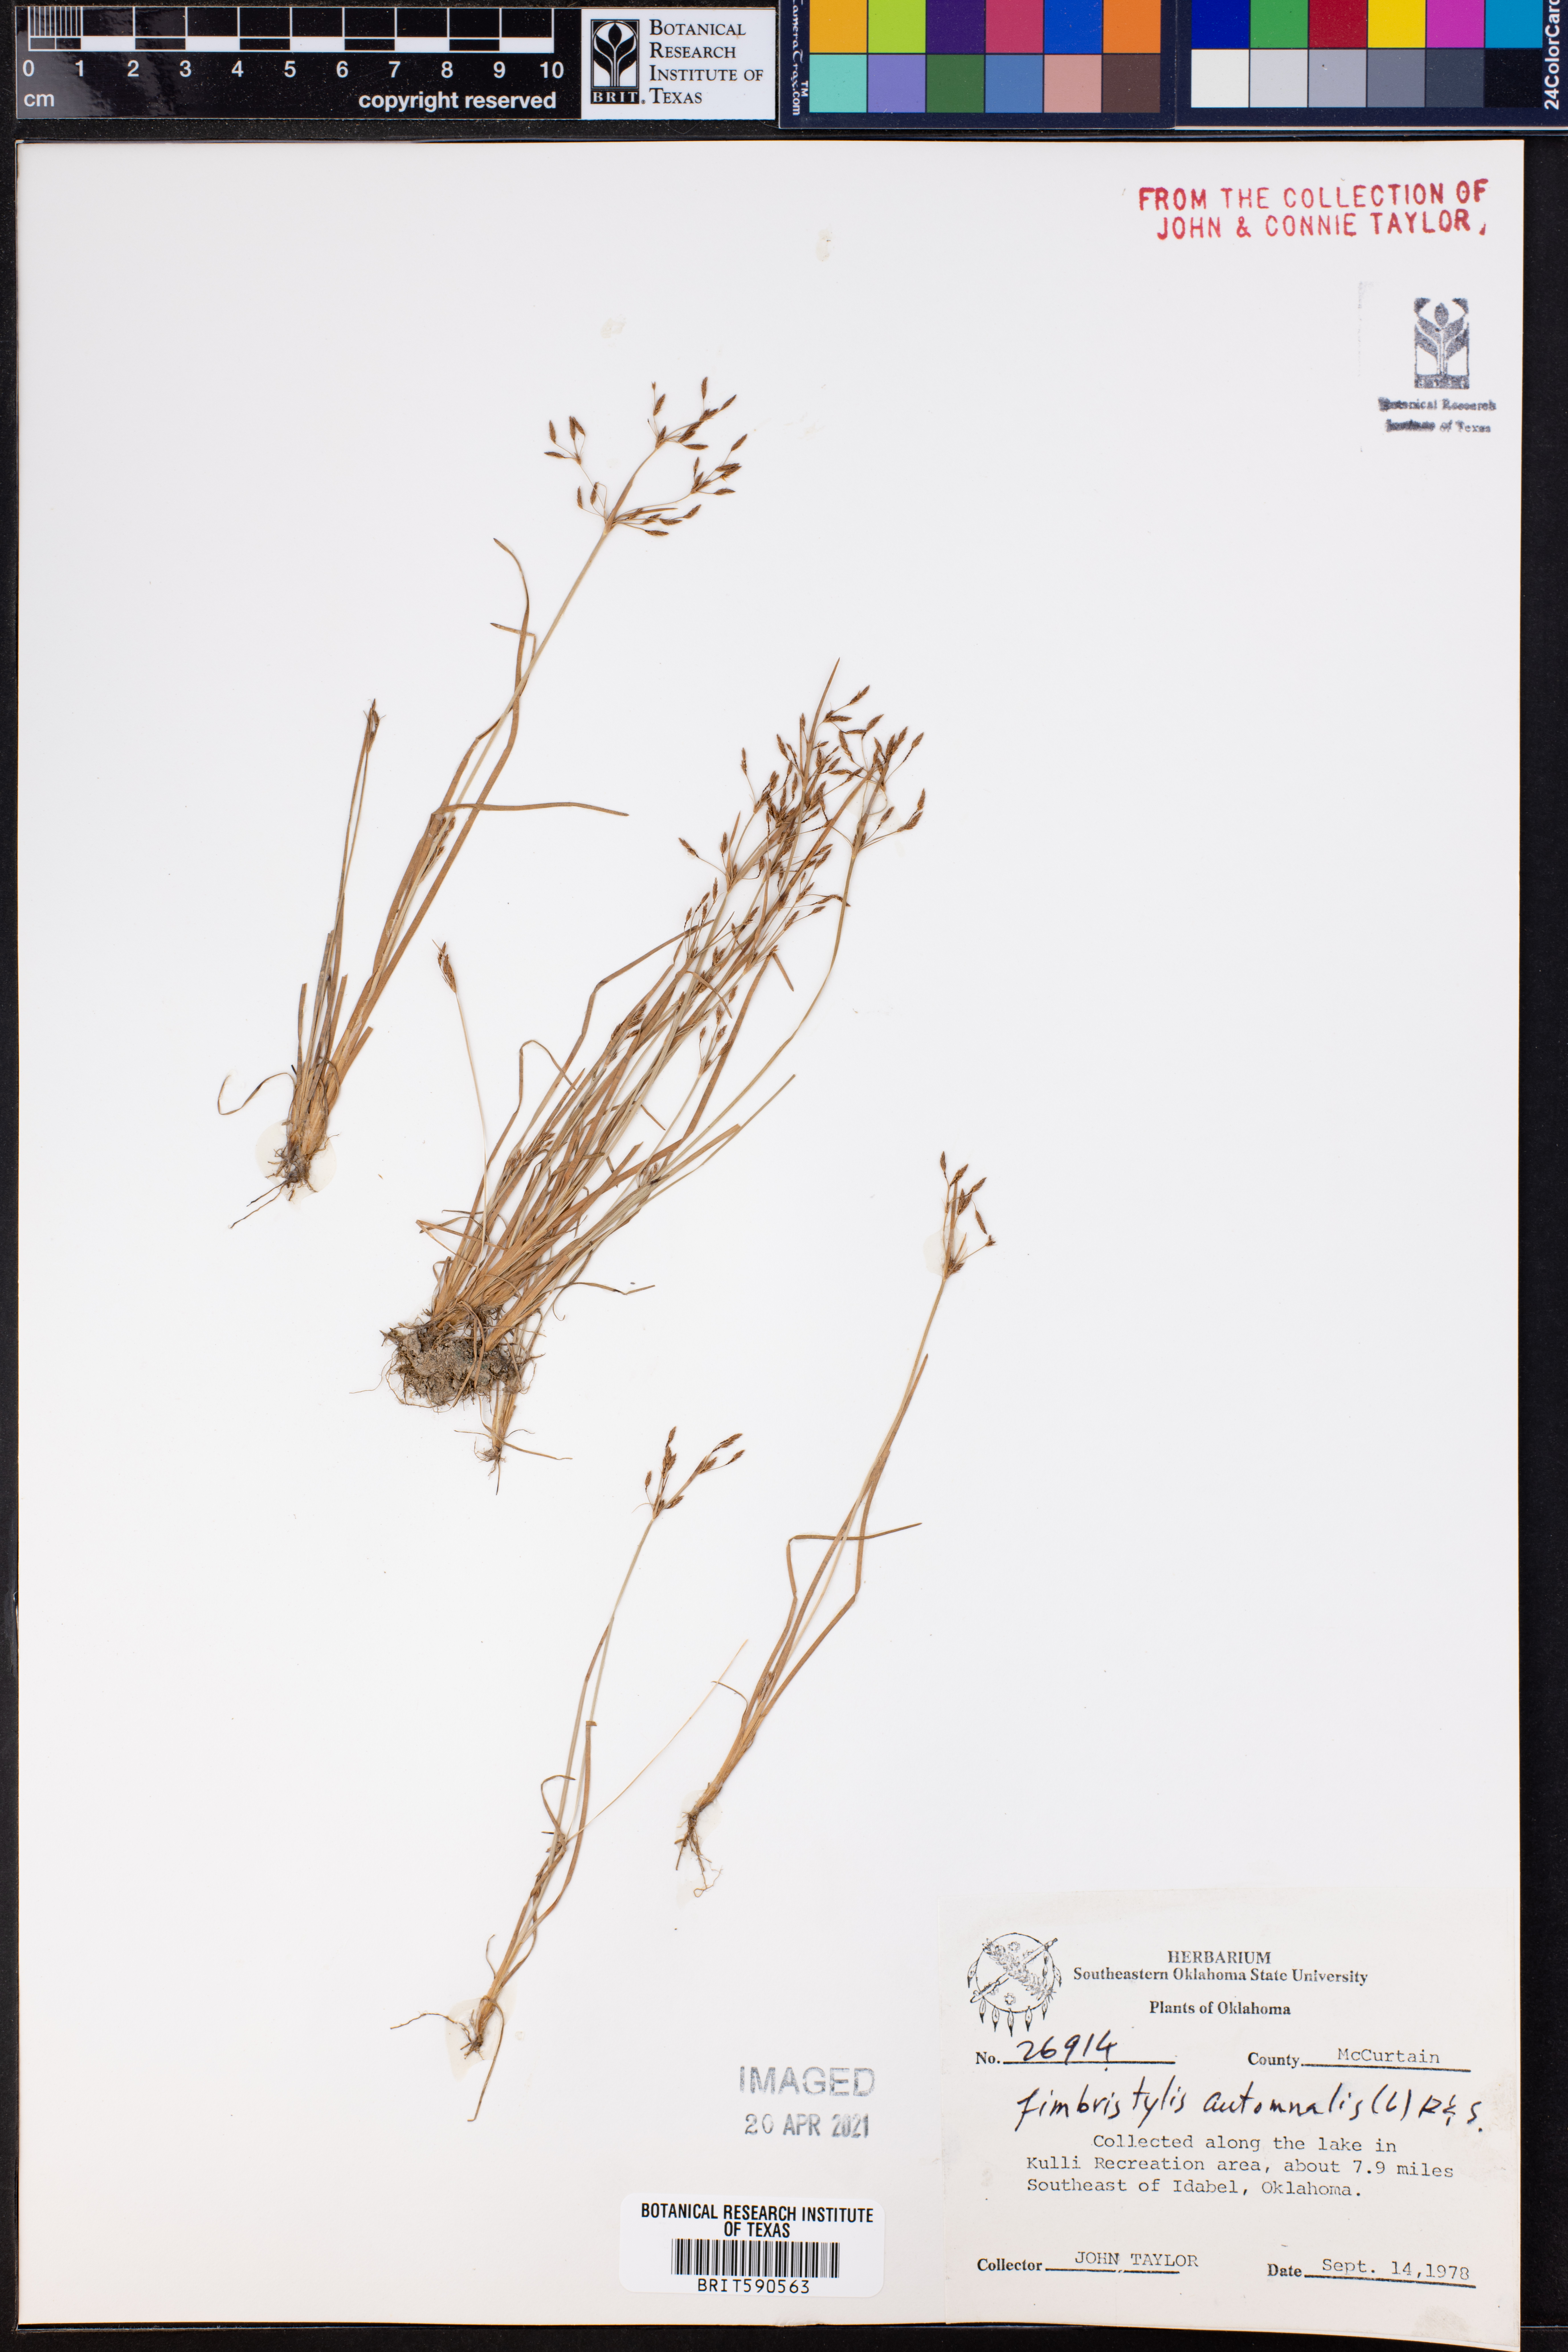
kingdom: Plantae
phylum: Tracheophyta
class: Liliopsida
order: Poales
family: Cyperaceae
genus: Fimbristylis
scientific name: Fimbristylis autumnalis
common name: Slender fimbristylis
